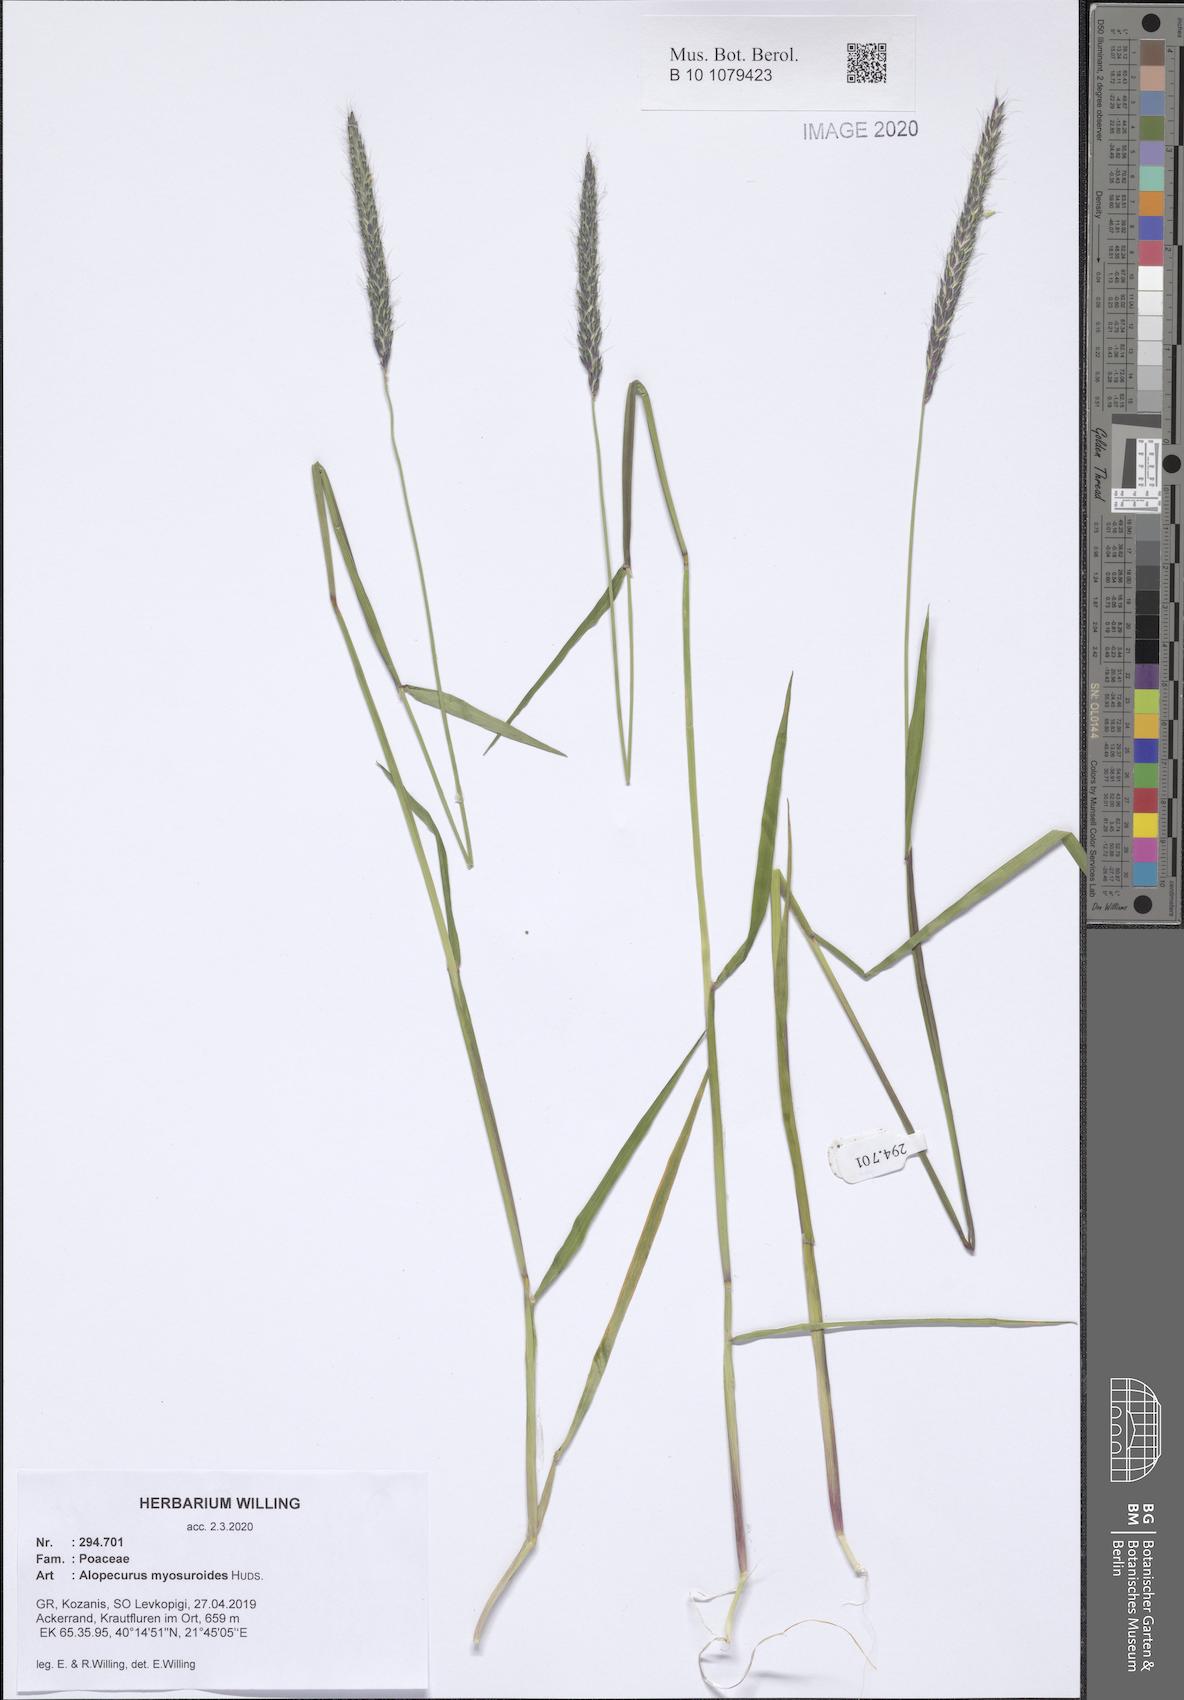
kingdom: Plantae
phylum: Tracheophyta
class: Liliopsida
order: Poales
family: Poaceae
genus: Alopecurus
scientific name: Alopecurus myosuroides
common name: Black-grass
